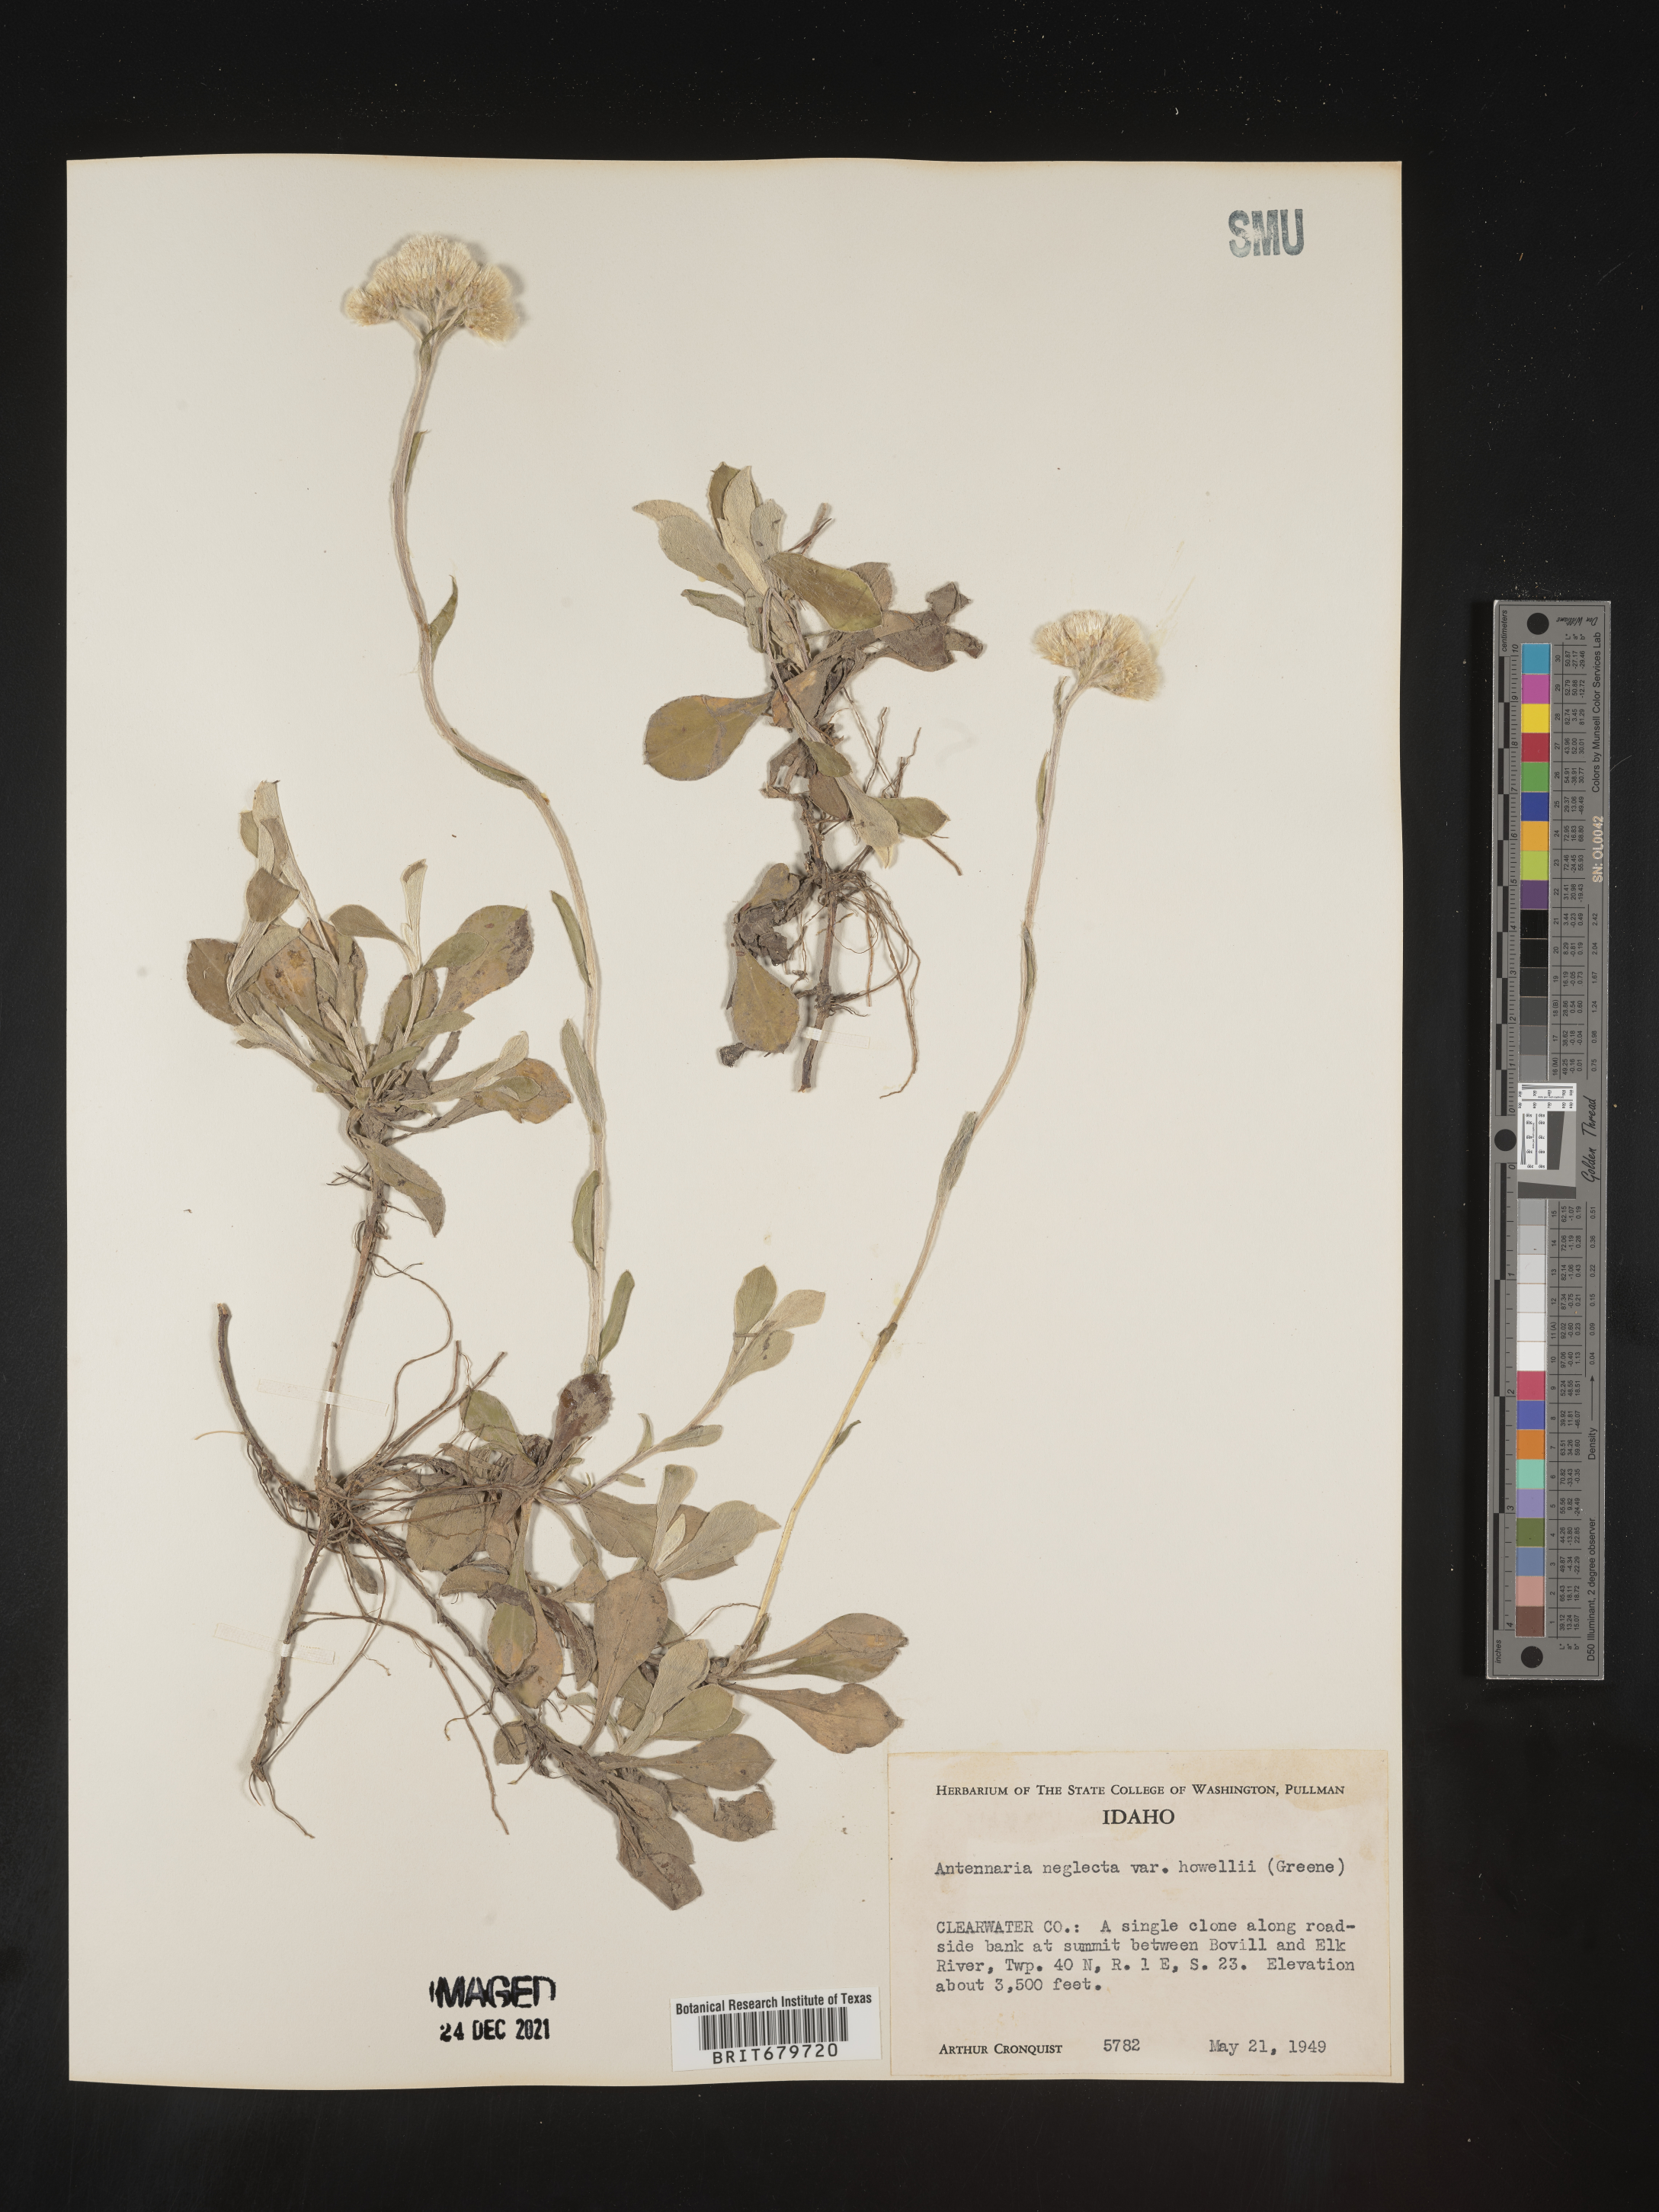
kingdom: Plantae
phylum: Tracheophyta
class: Magnoliopsida
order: Asterales
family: Asteraceae
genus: Antennaria
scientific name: Antennaria neglecta
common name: Field pussytoes
